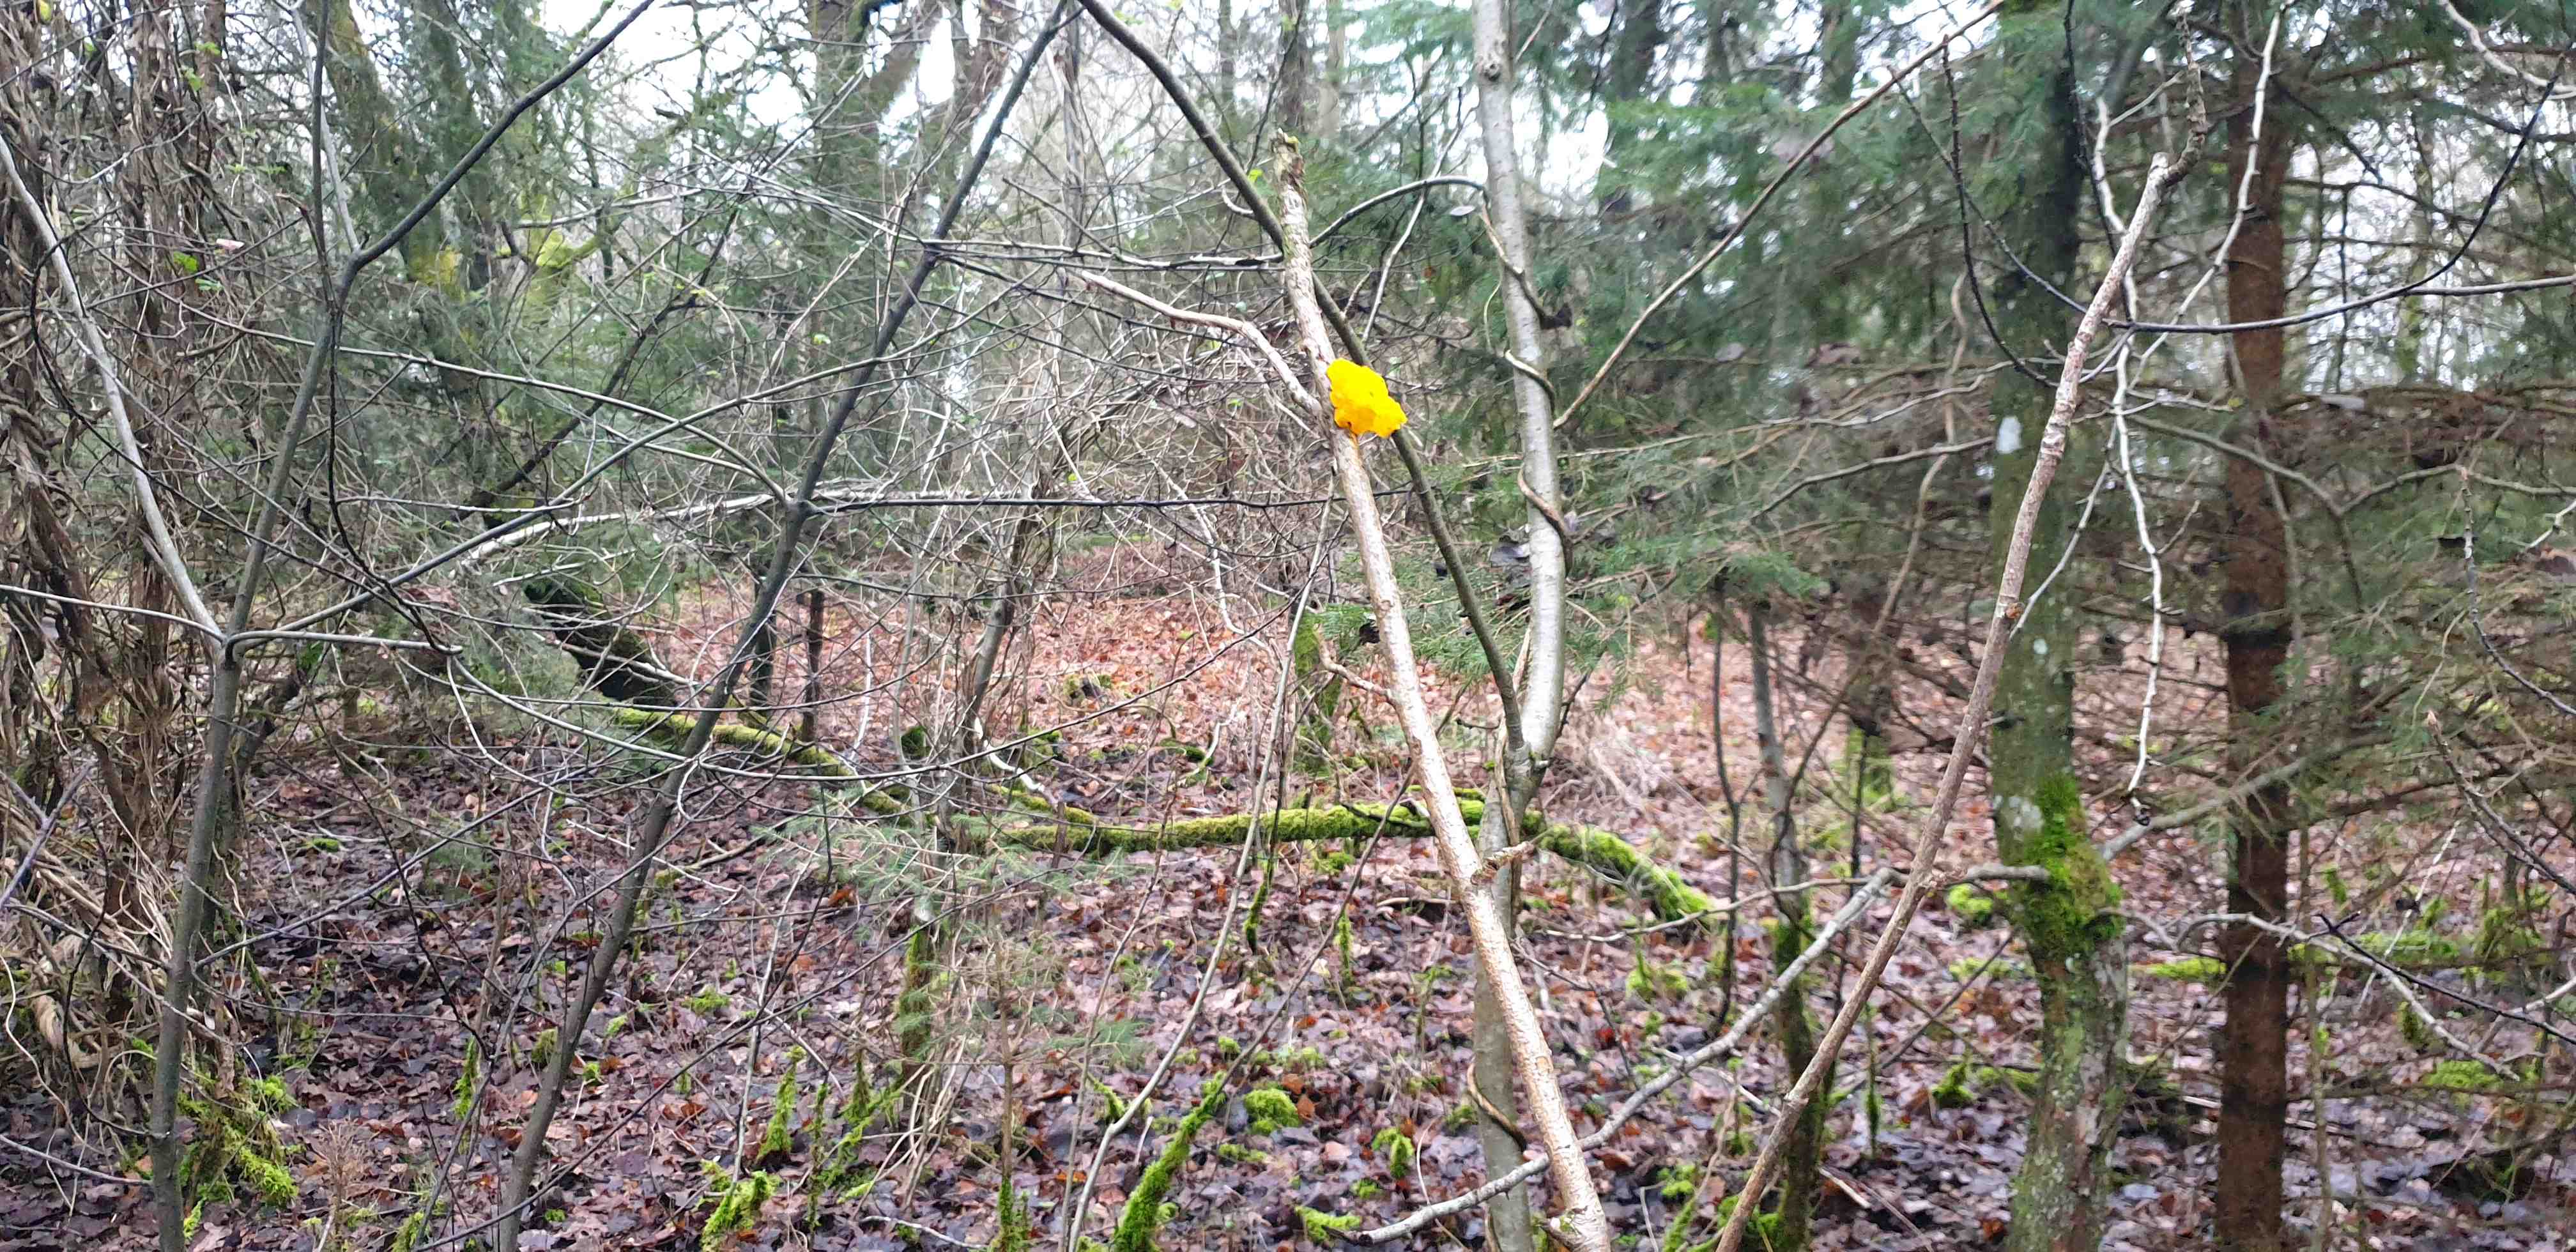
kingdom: Fungi
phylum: Basidiomycota
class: Tremellomycetes
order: Tremellales
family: Tremellaceae
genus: Tremella
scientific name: Tremella mesenterica
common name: gul bævresvamp
